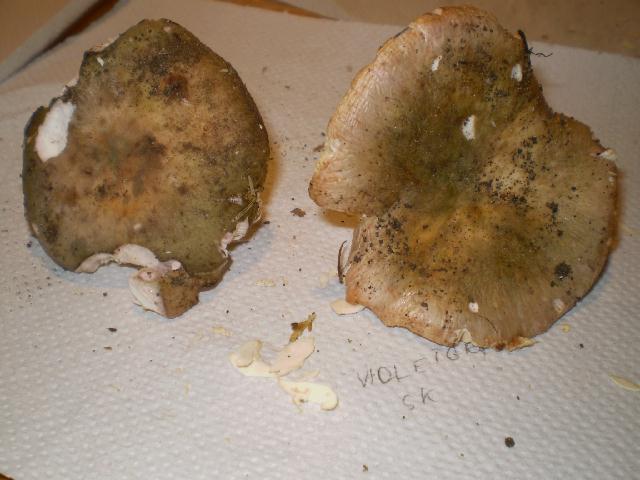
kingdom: Fungi
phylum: Basidiomycota
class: Agaricomycetes
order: Russulales
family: Russulaceae
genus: Russula
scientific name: Russula grisea
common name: grålig skørhat
